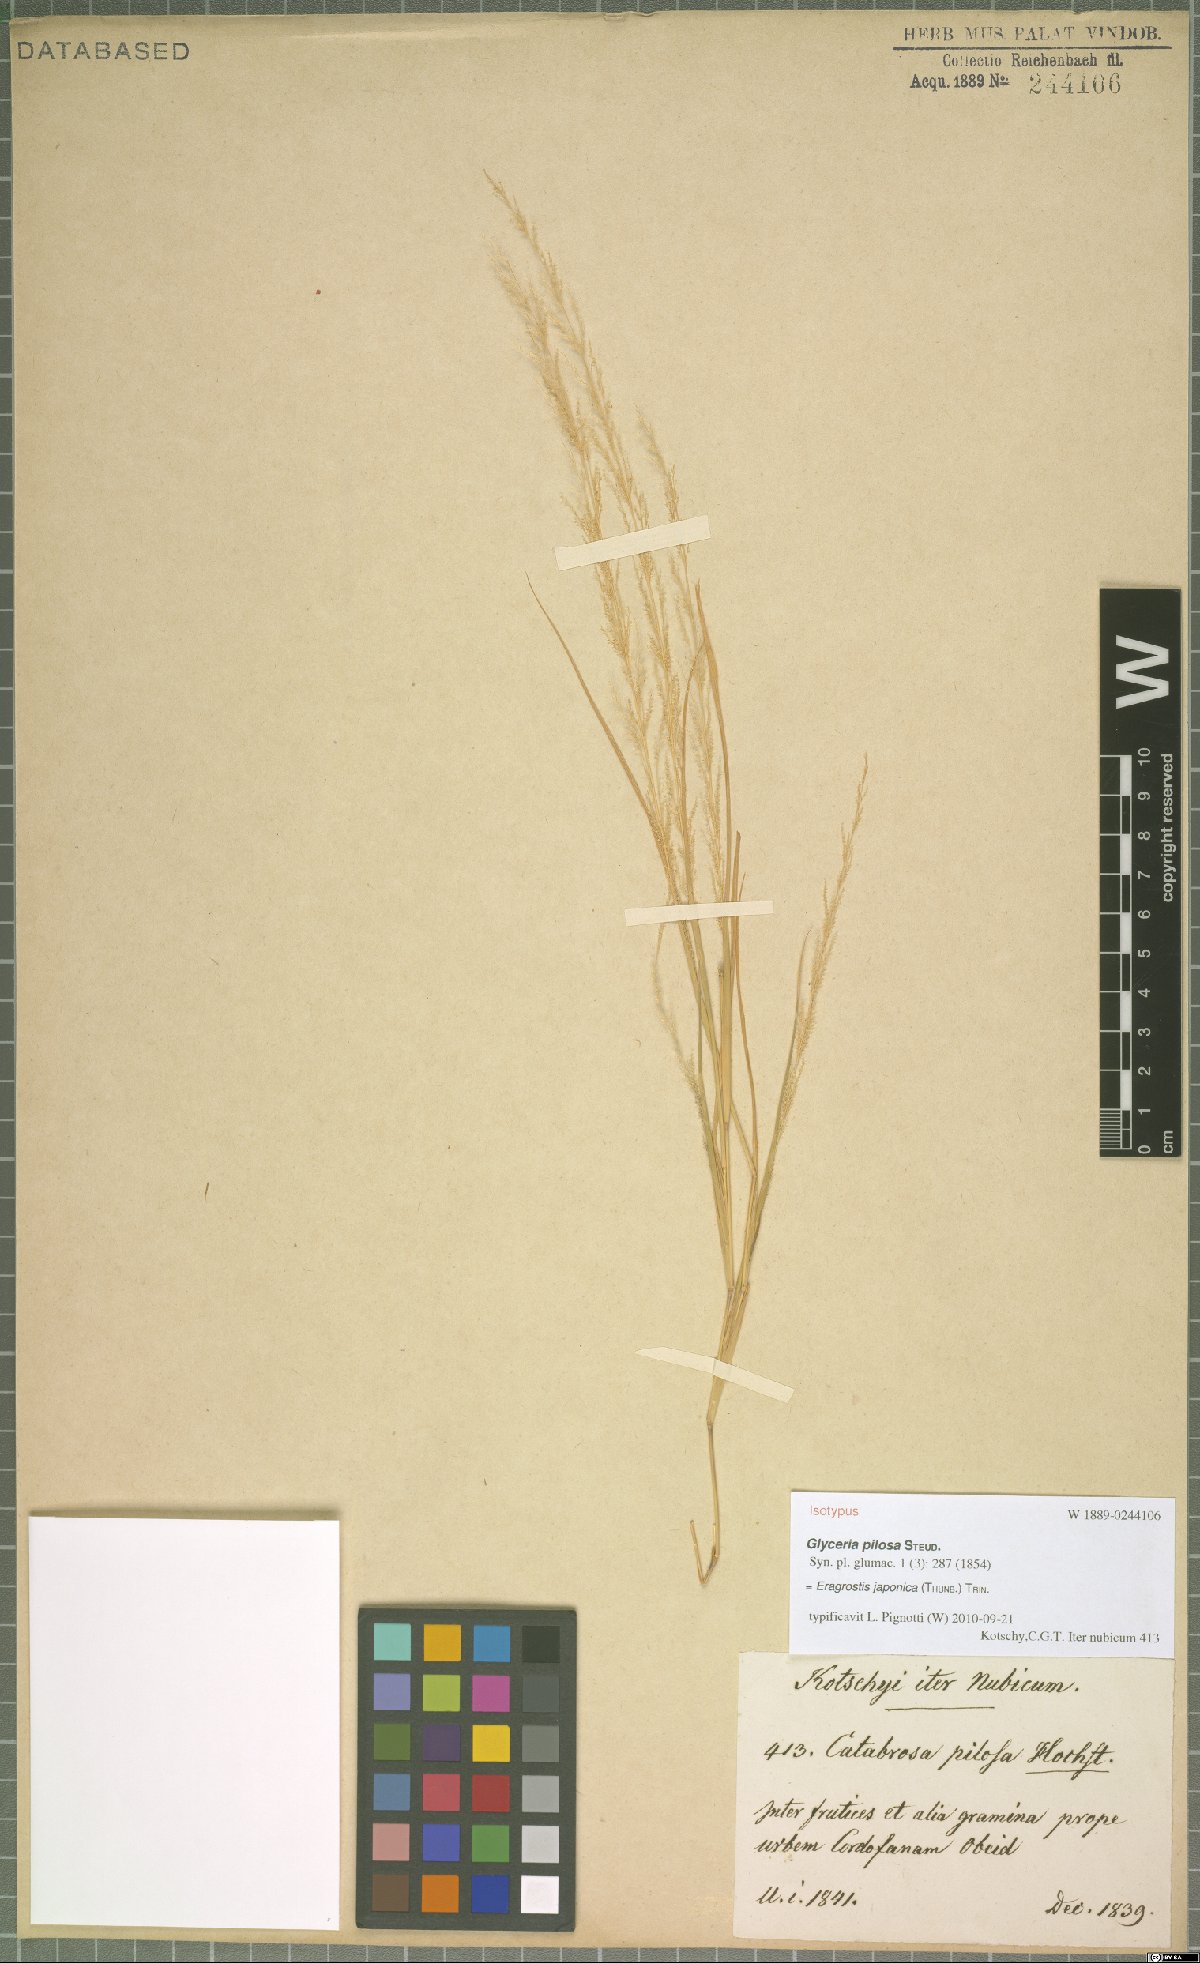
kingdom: Plantae
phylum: Tracheophyta
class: Liliopsida
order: Poales
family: Poaceae
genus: Eragrostis
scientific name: Eragrostis japonica
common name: Pond lovegrass
